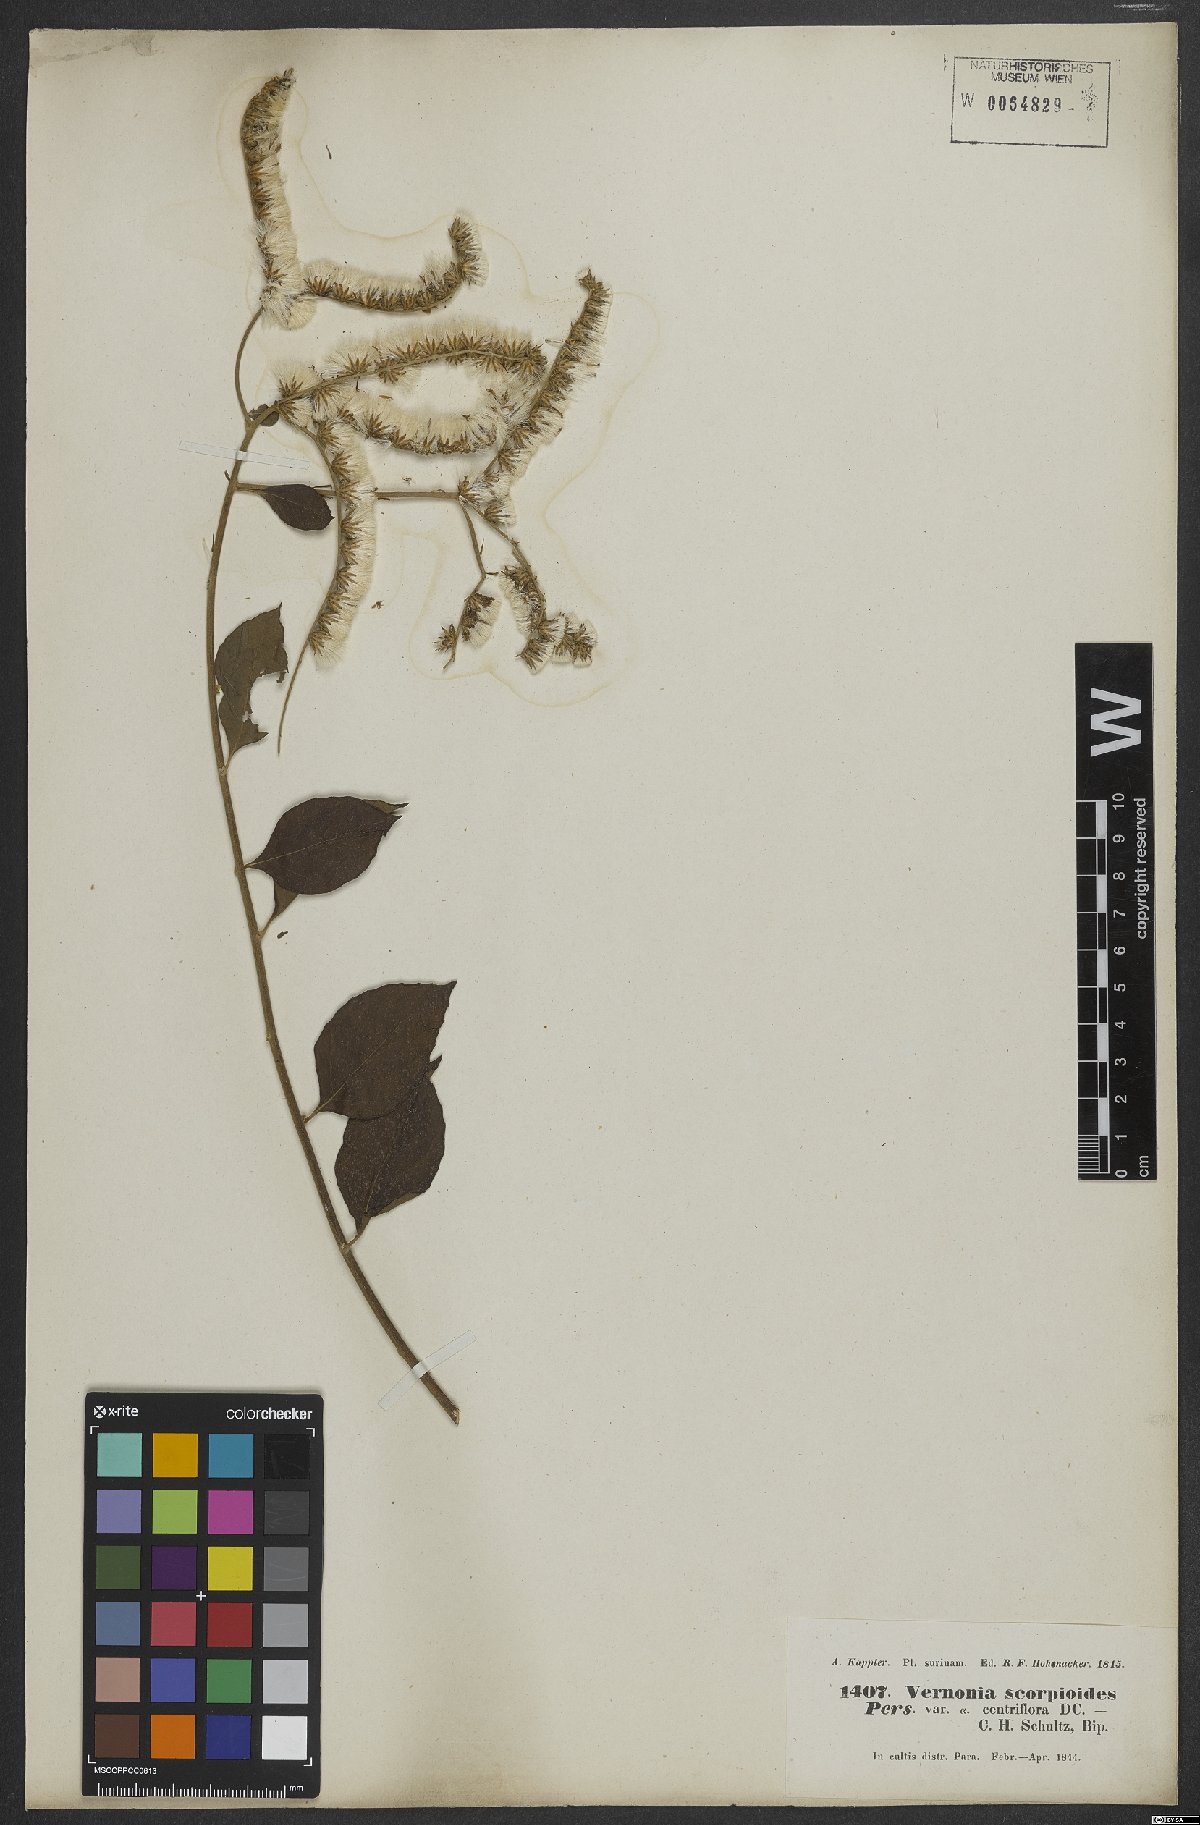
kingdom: Plantae
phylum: Tracheophyta
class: Magnoliopsida
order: Asterales
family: Asteraceae
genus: Cyrtocymura
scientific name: Cyrtocymura scorpioides
